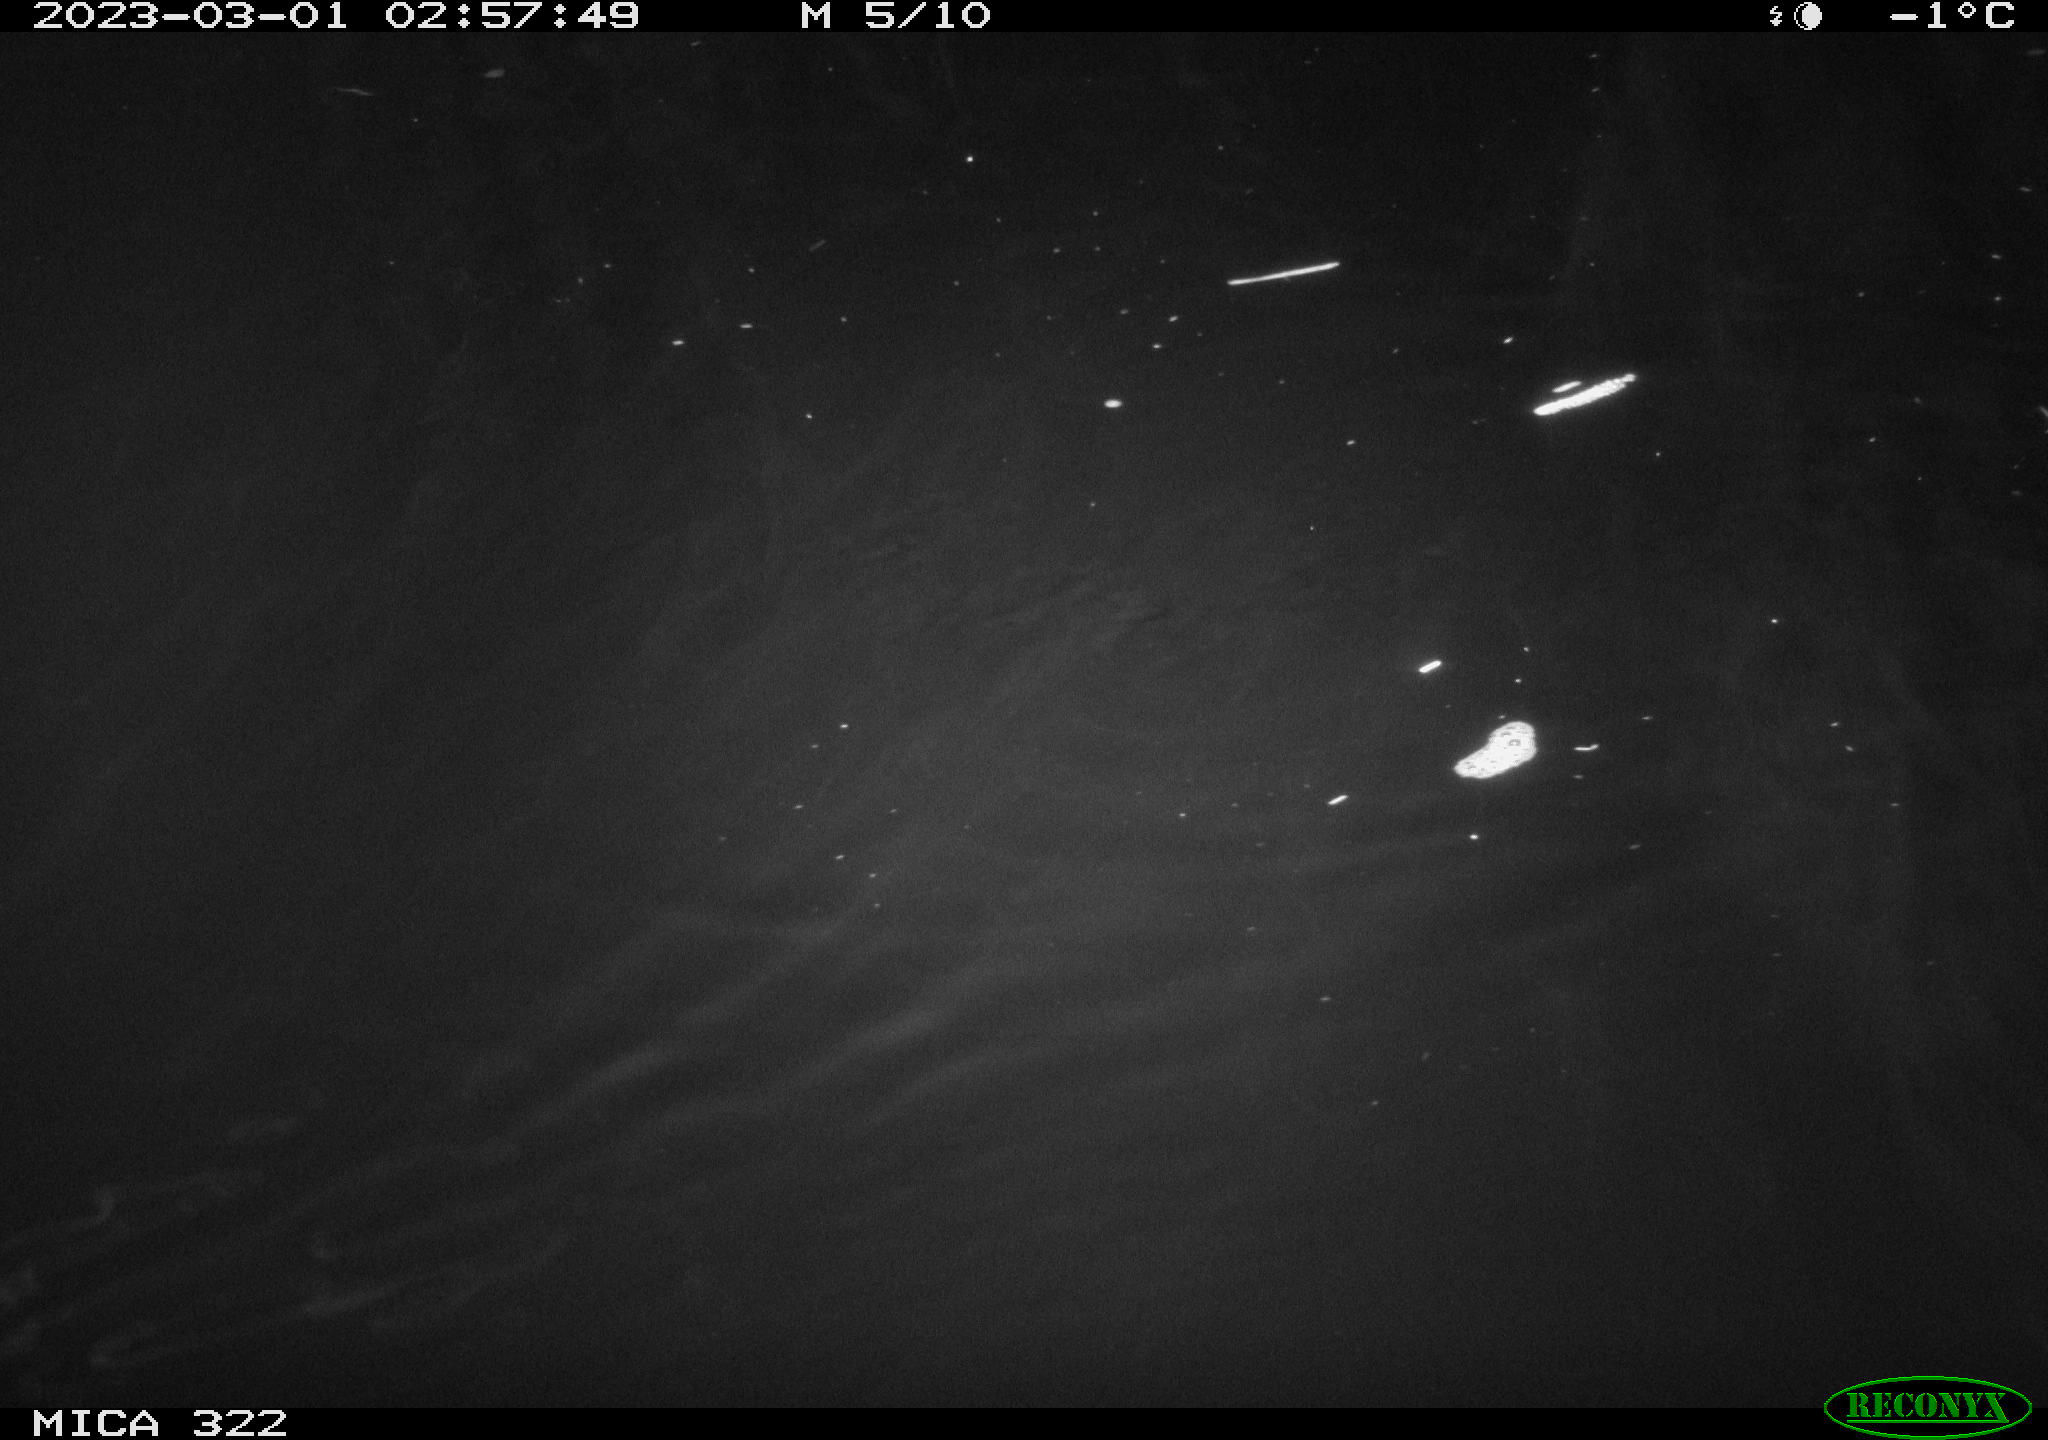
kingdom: Animalia
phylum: Chordata
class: Mammalia
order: Rodentia
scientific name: Rodentia
